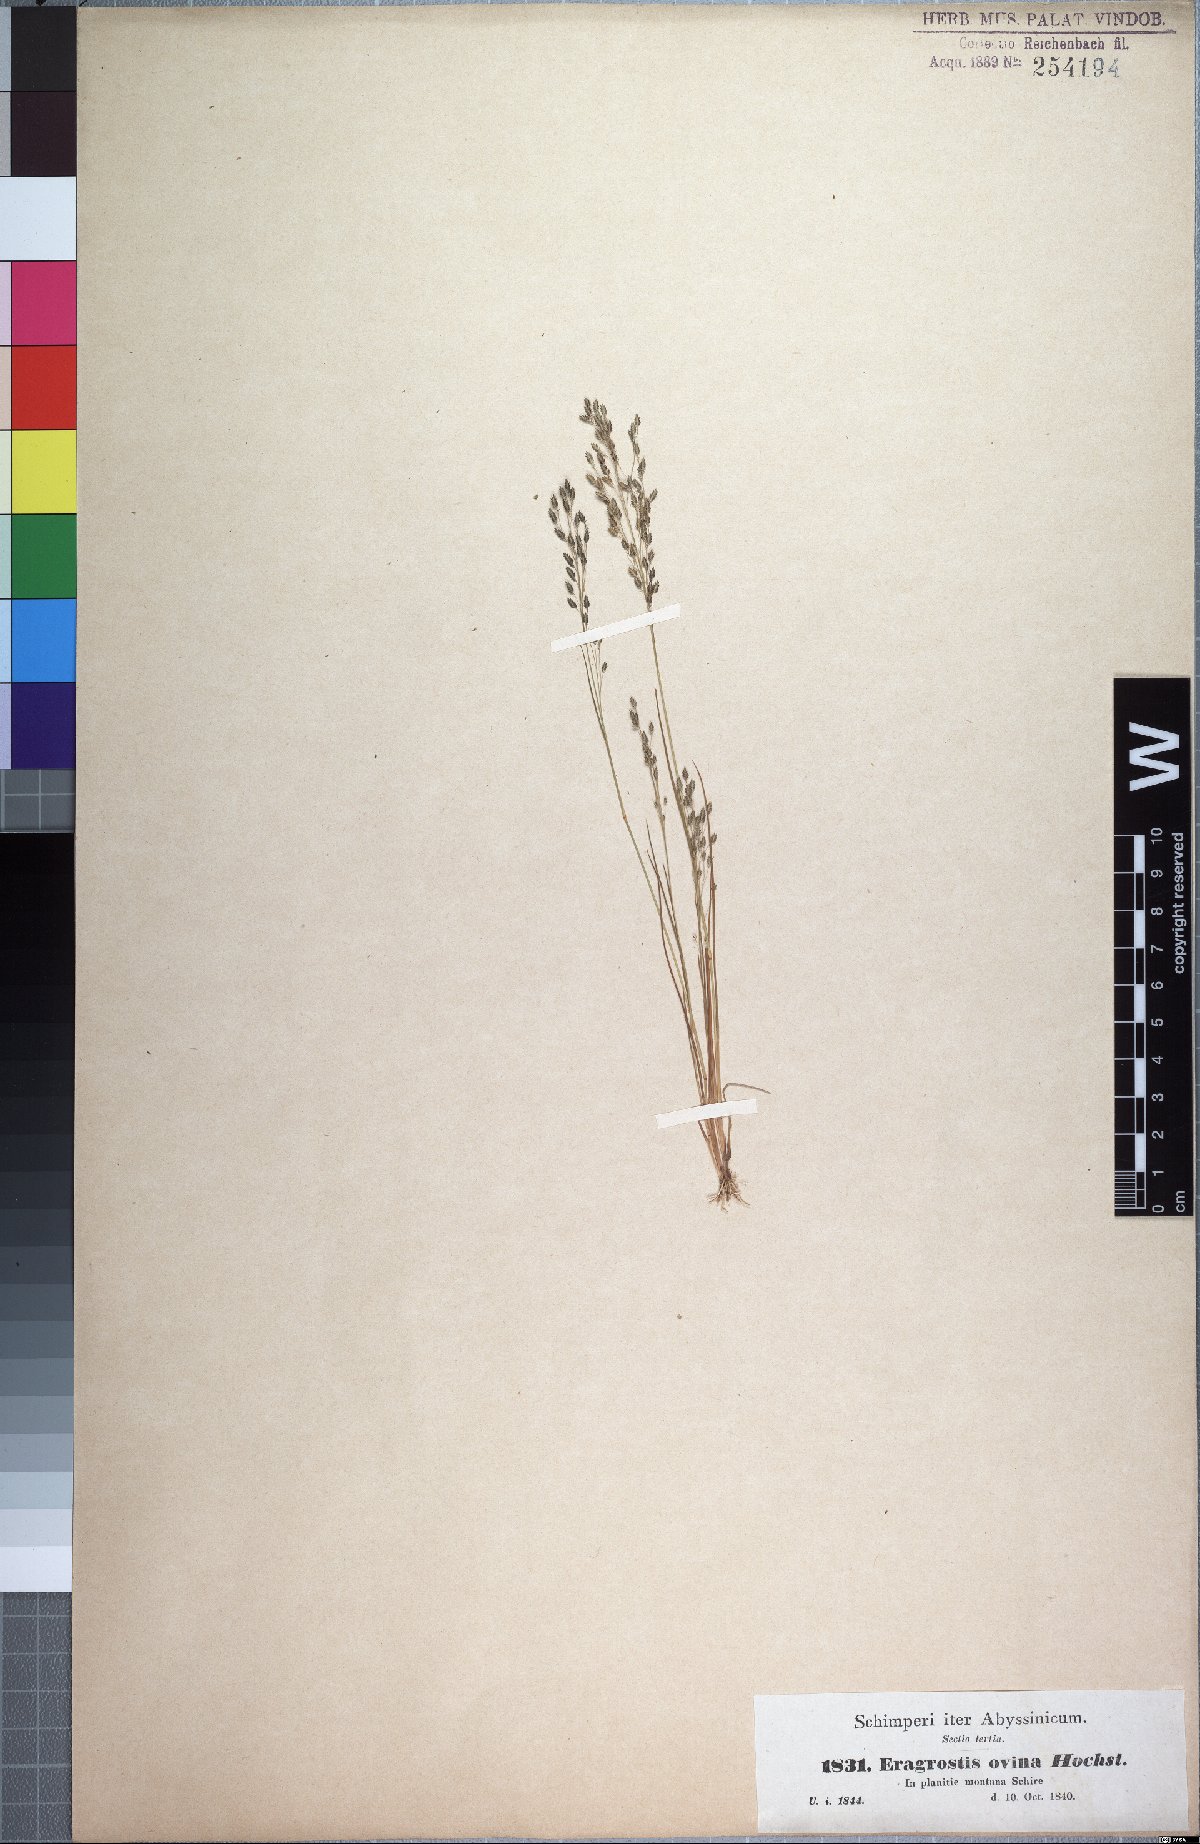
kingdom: Plantae
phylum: Tracheophyta
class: Liliopsida
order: Poales
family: Poaceae
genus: Eragrostis
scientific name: Eragrostis gangetica
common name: Slimflower lovegrass
